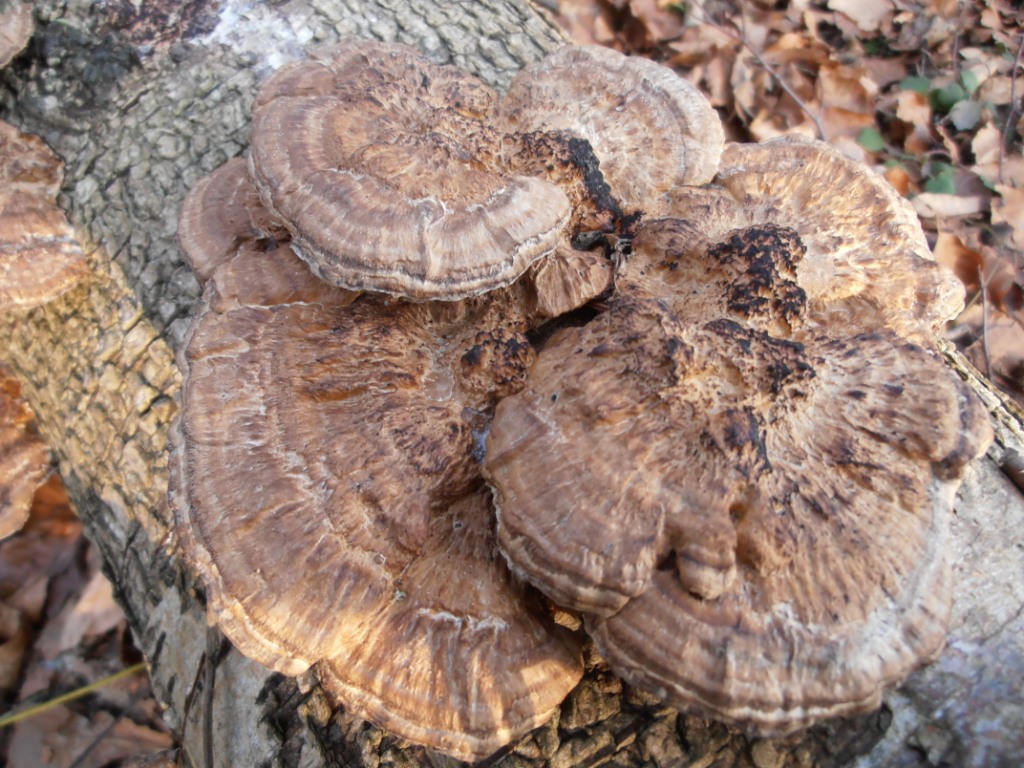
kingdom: Fungi
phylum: Basidiomycota
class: Agaricomycetes
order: Polyporales
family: Polyporaceae
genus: Daedaleopsis
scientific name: Daedaleopsis confragosa
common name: rødmende læderporesvamp
